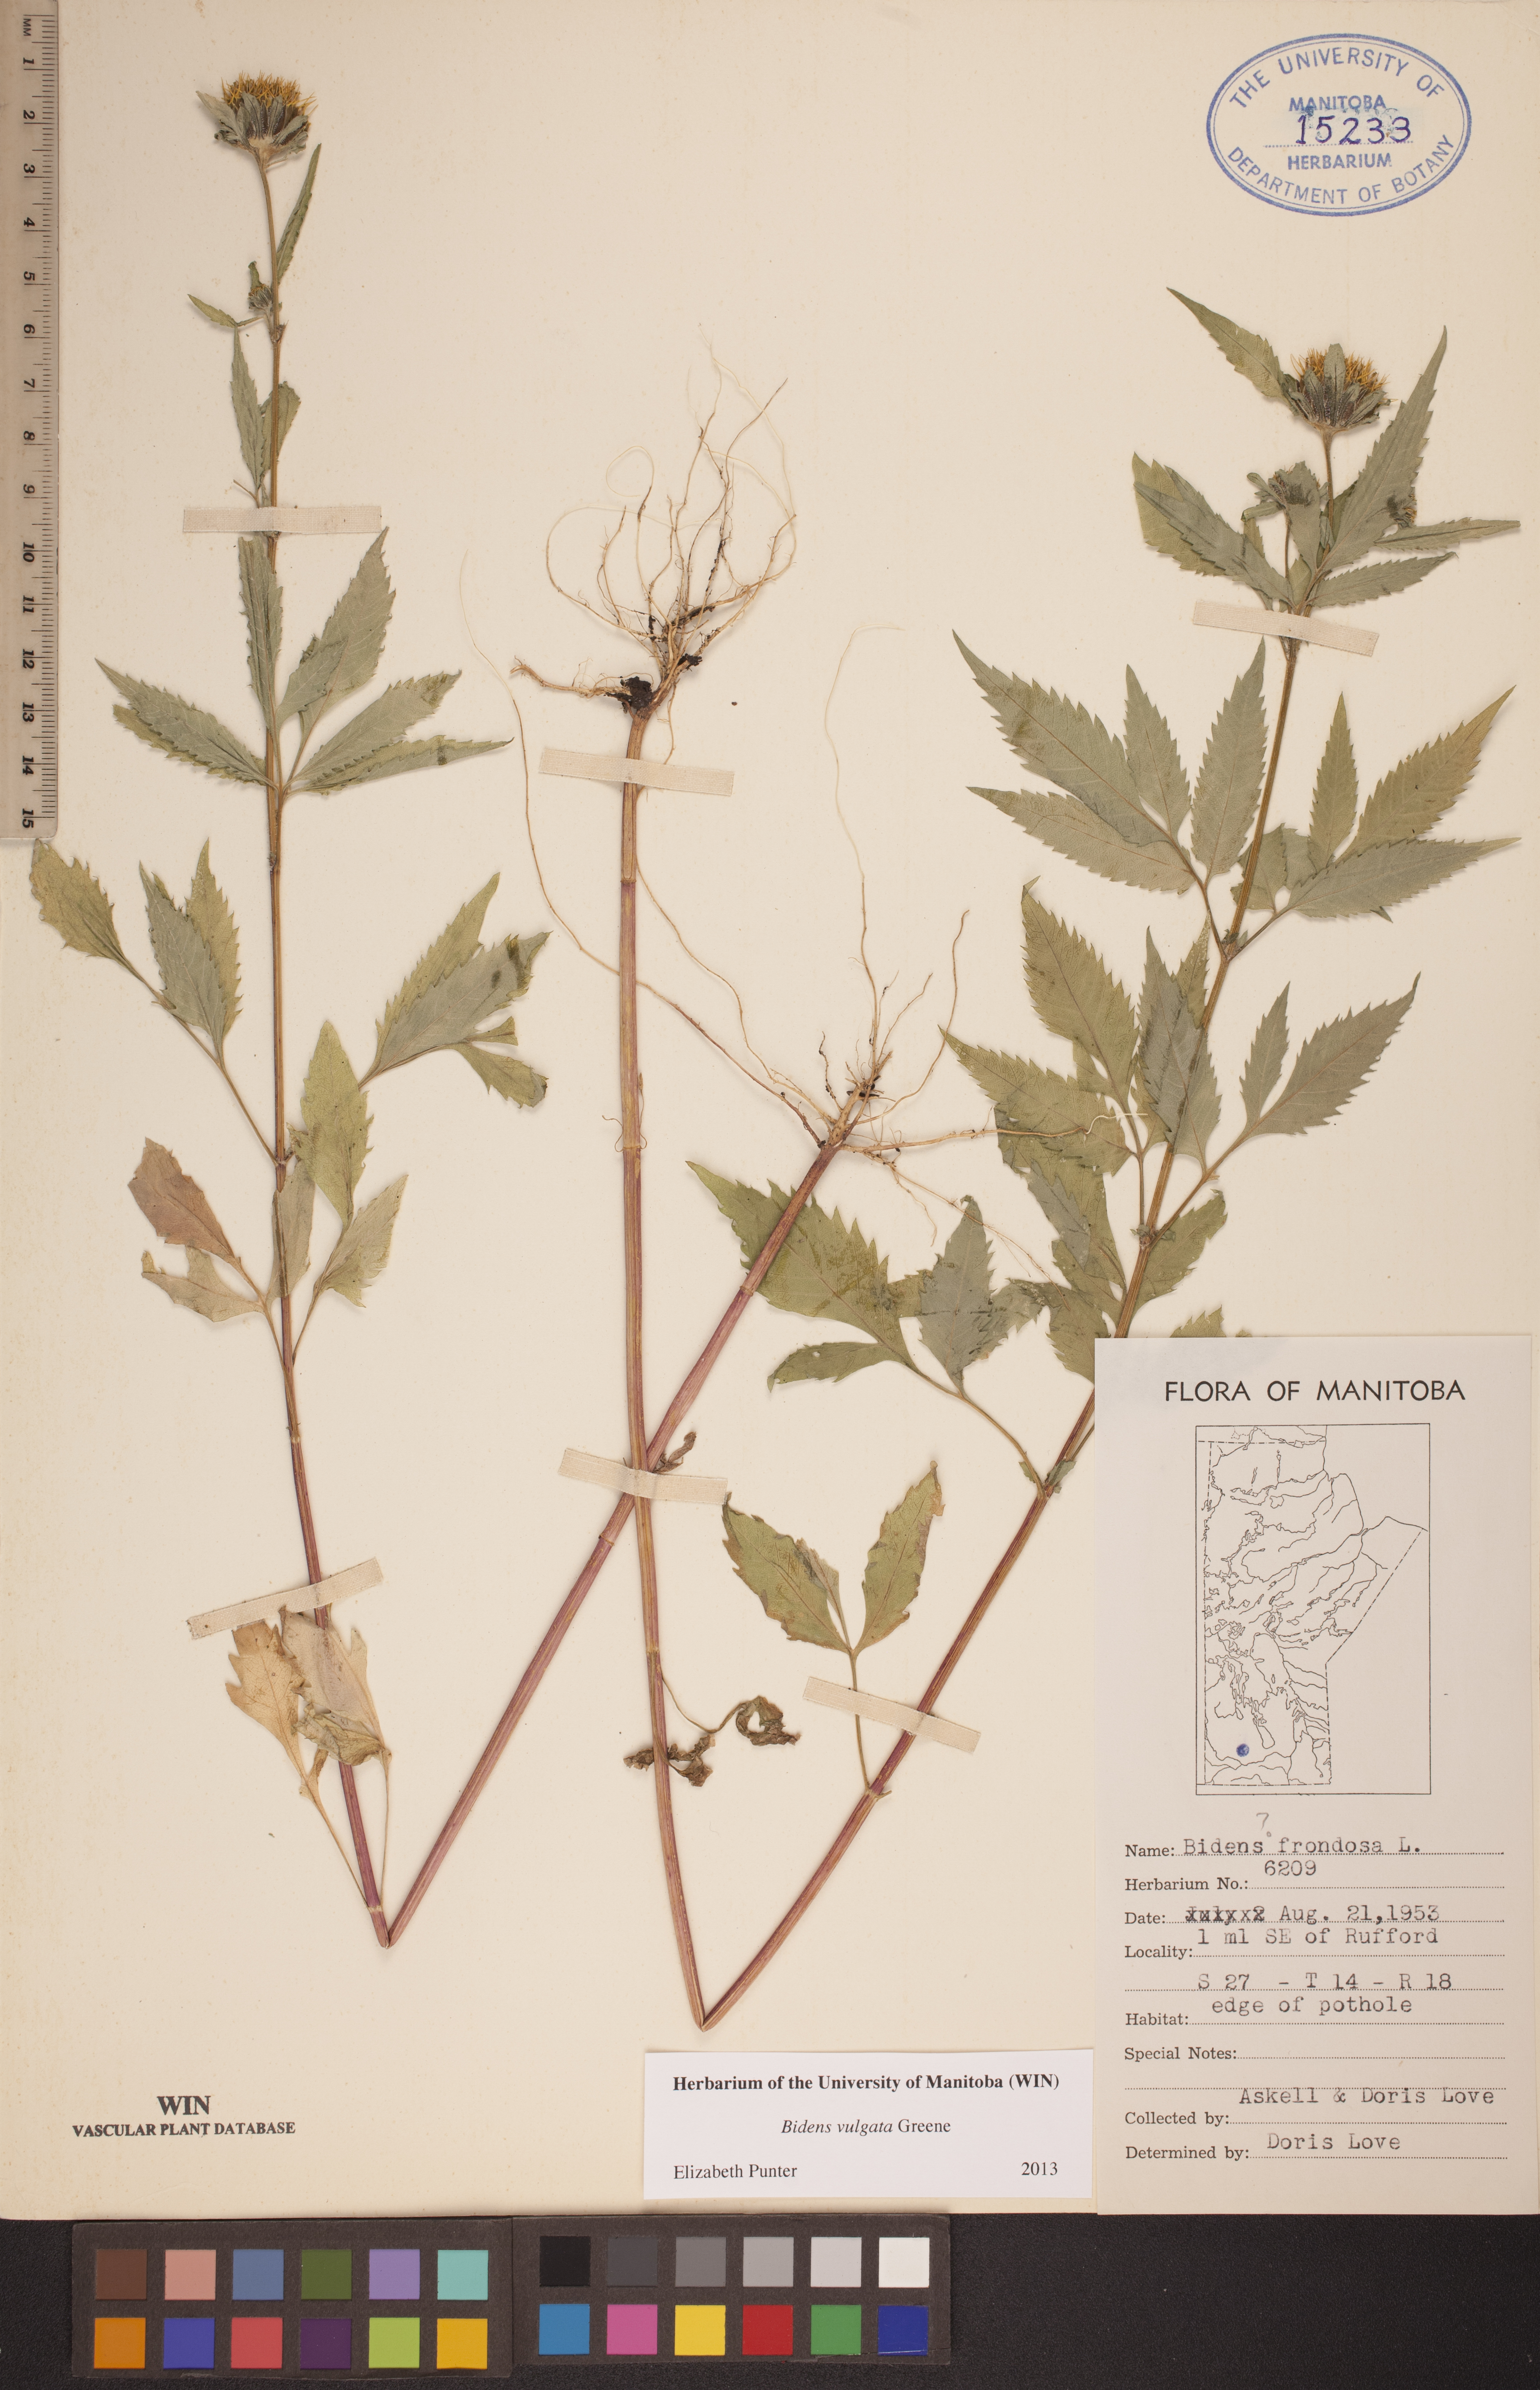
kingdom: Plantae
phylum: Tracheophyta
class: Magnoliopsida
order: Asterales
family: Asteraceae
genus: Bidens
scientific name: Bidens vulgata
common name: Tall beggarticks
